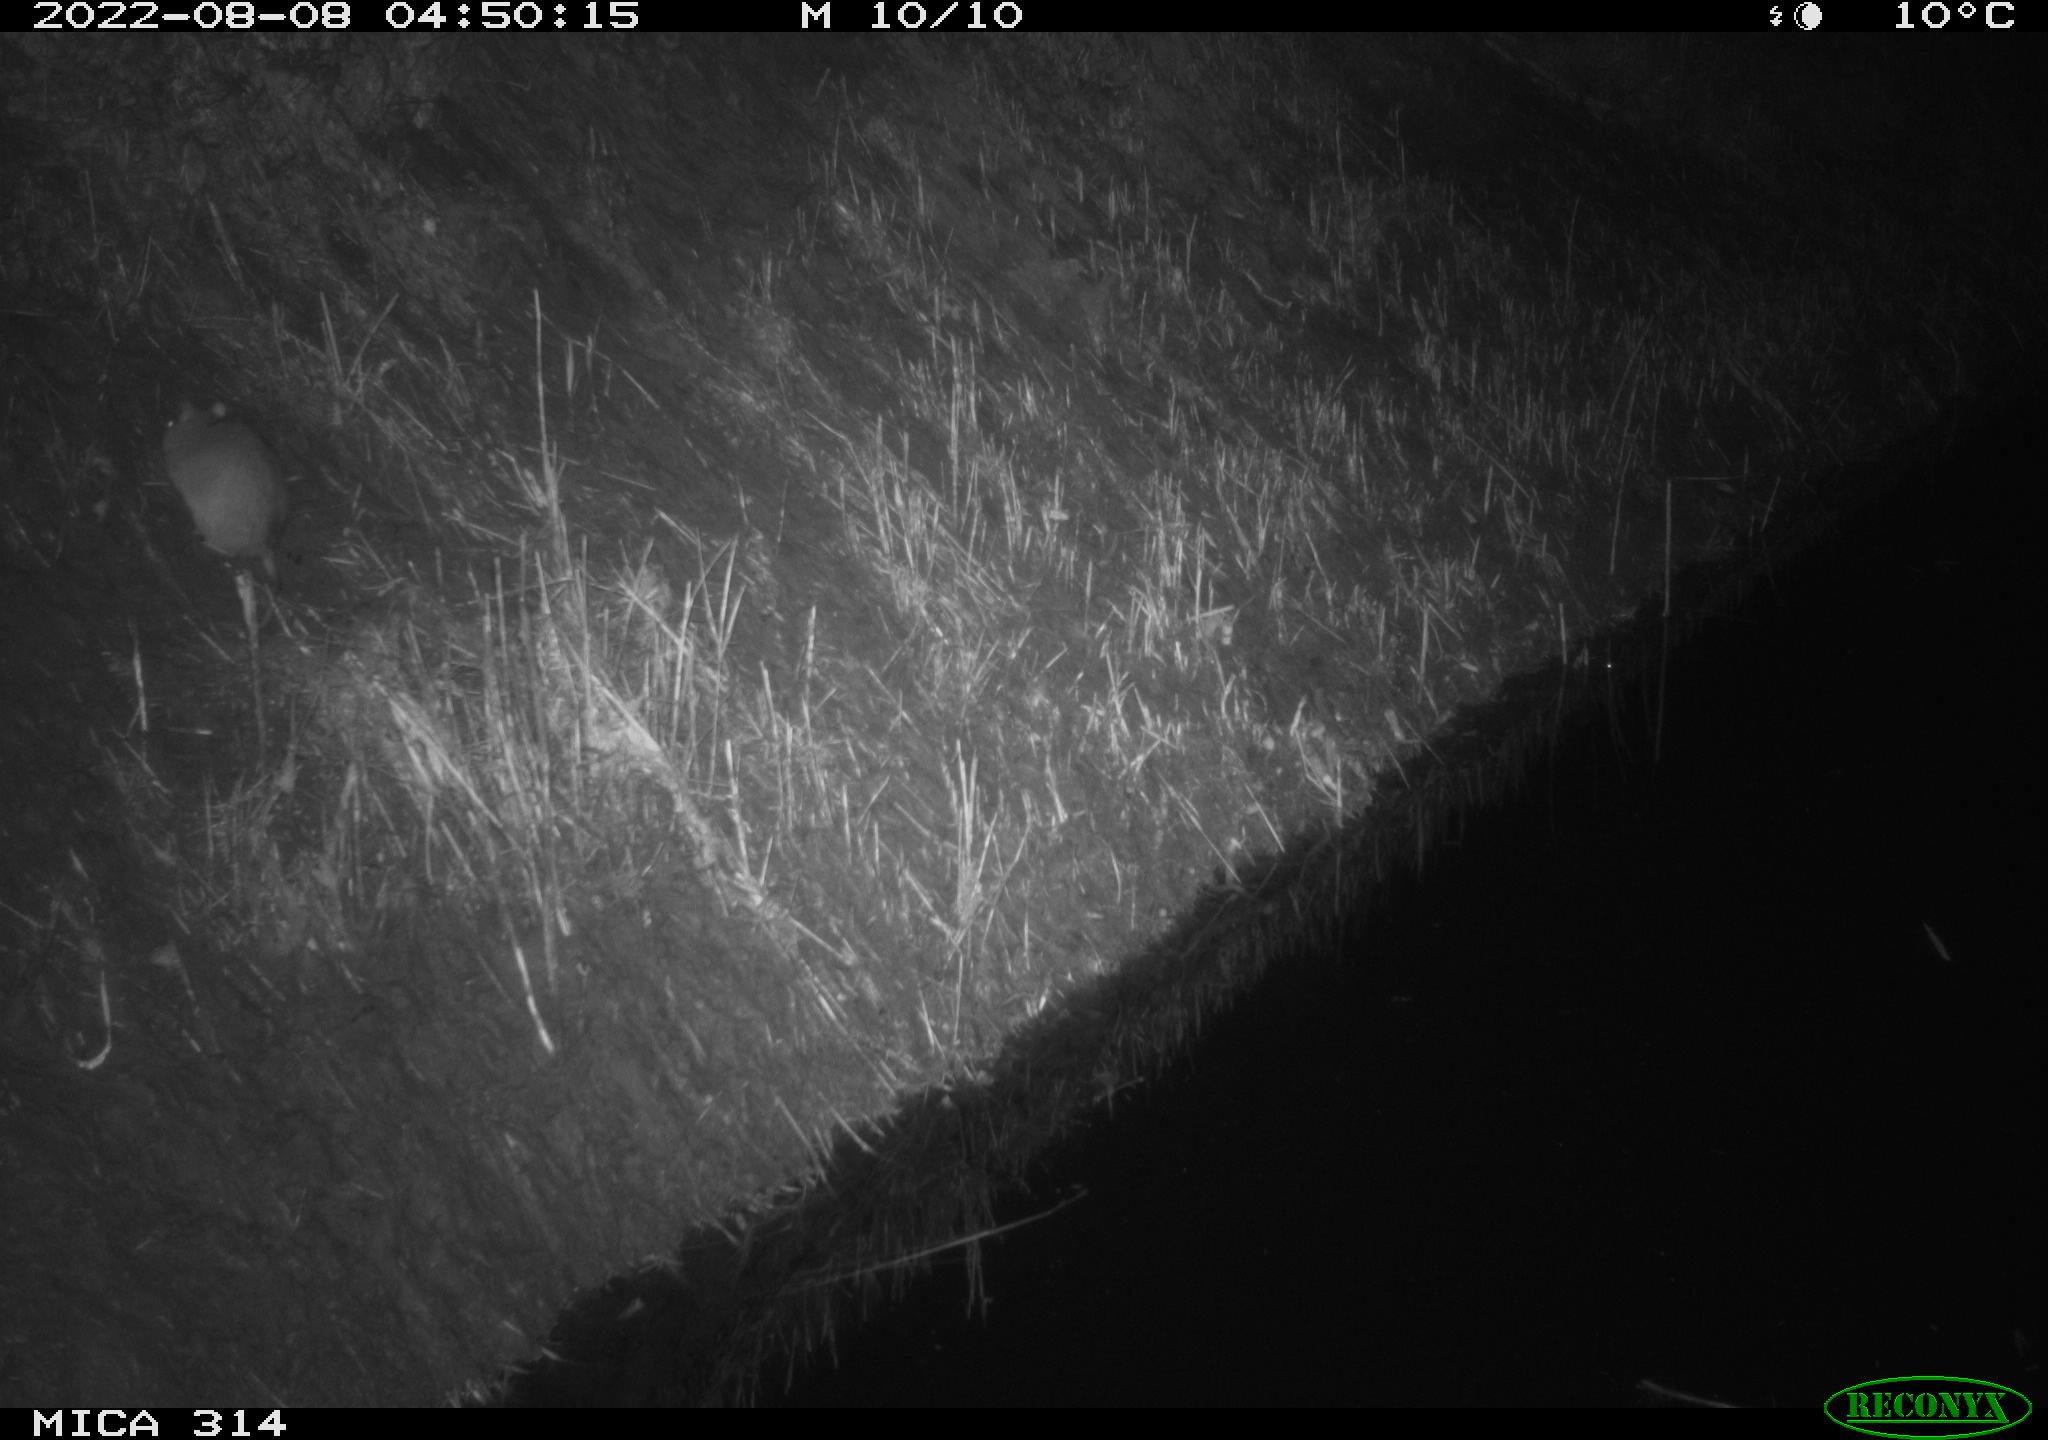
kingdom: Animalia
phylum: Chordata
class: Mammalia
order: Rodentia
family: Muridae
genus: Rattus
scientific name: Rattus norvegicus
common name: Brown rat
